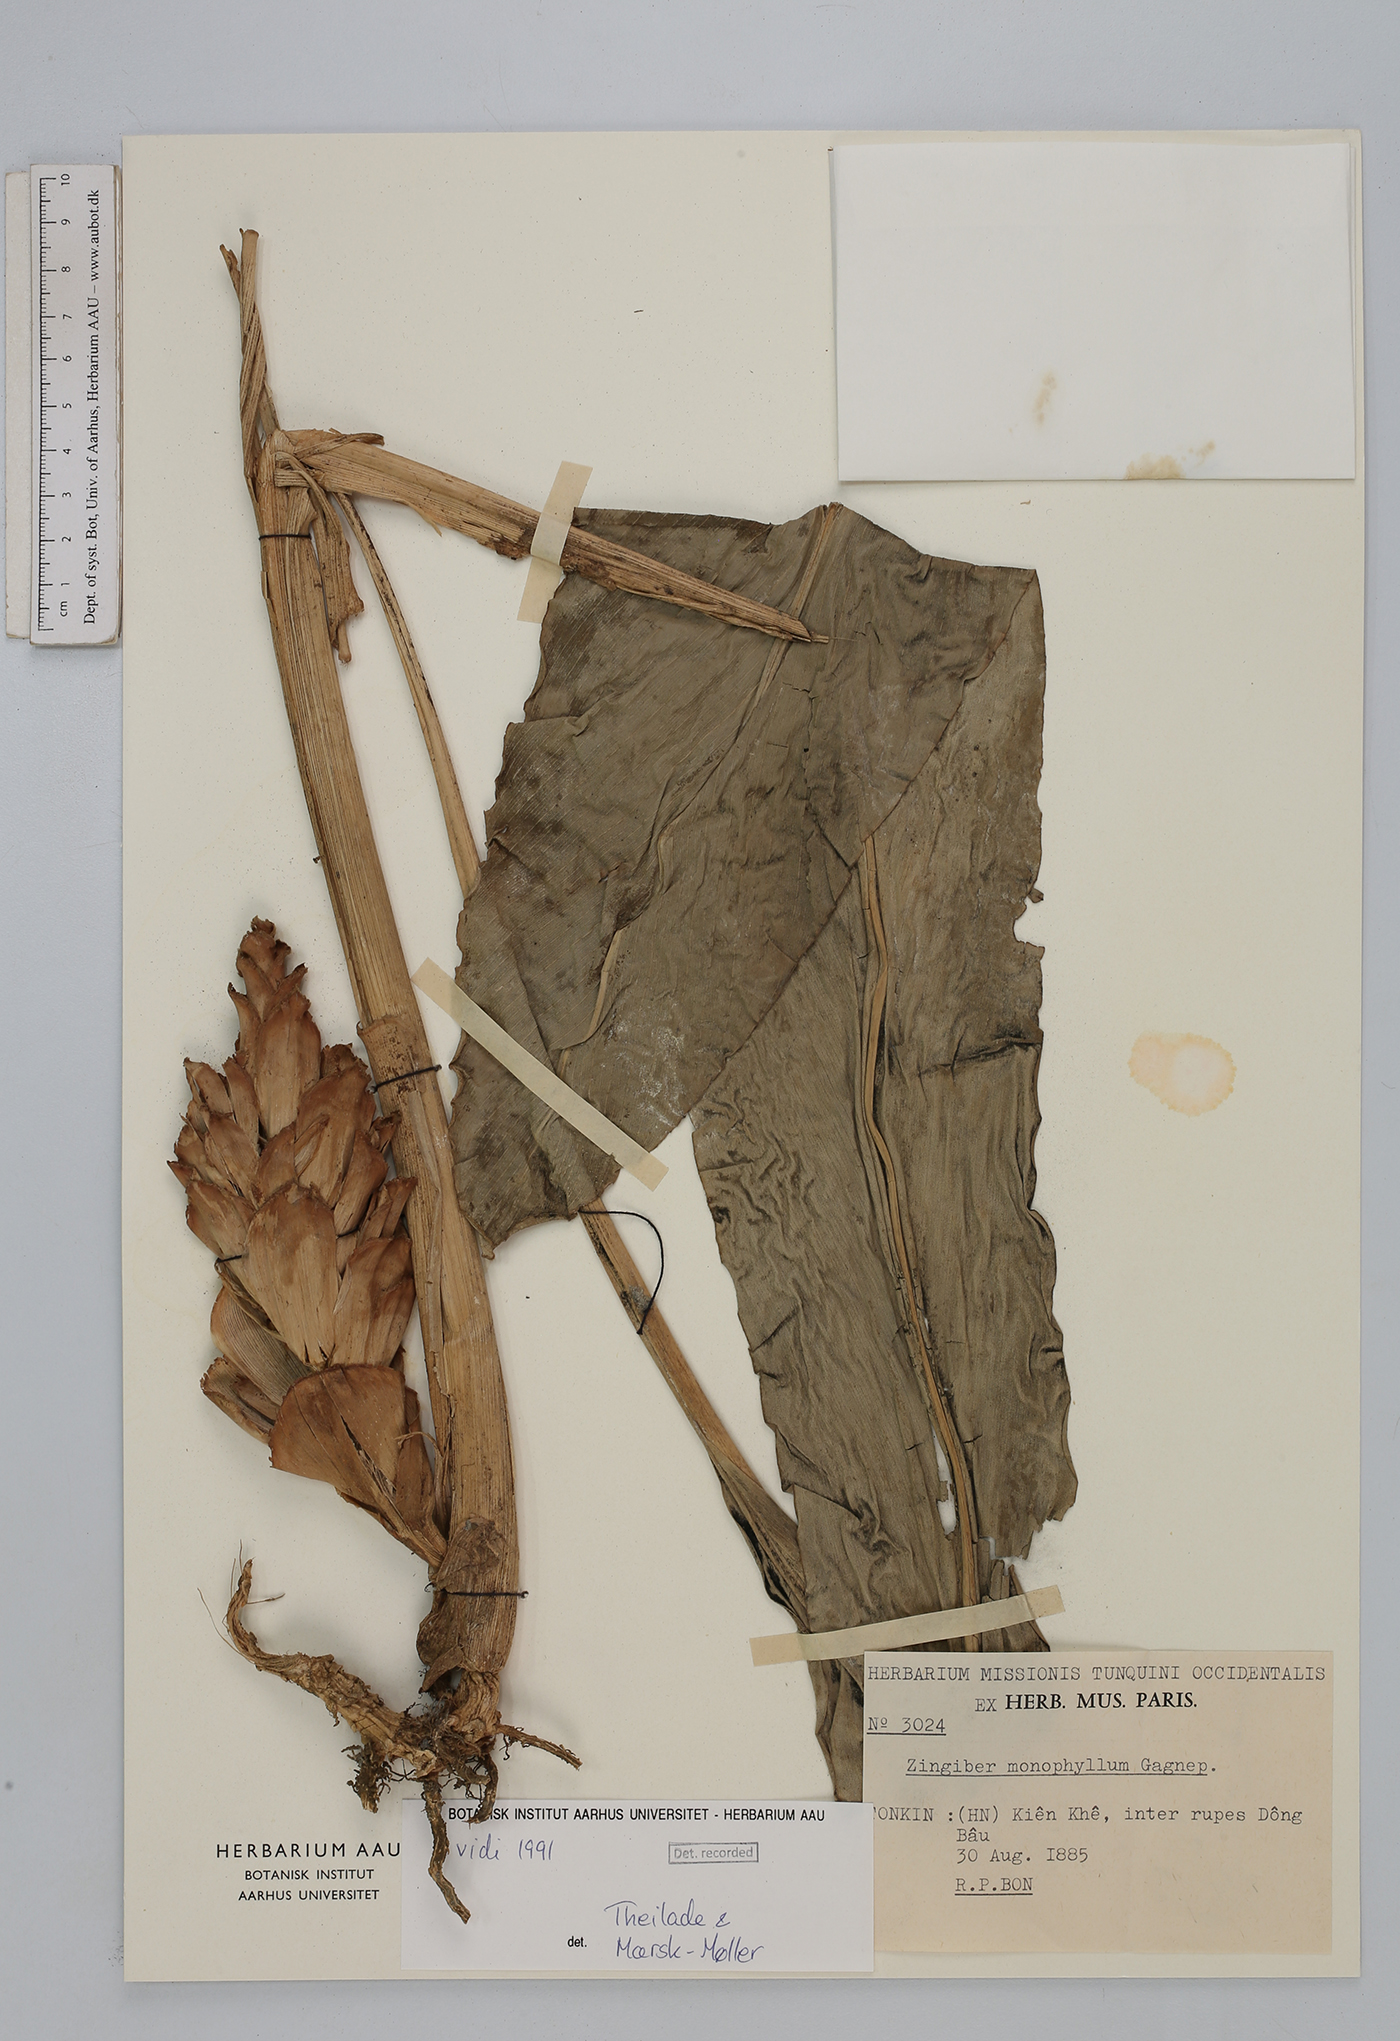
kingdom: Plantae
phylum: Tracheophyta
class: Liliopsida
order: Zingiberales
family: Zingiberaceae
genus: Zingiber
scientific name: Zingiber monophyllum
